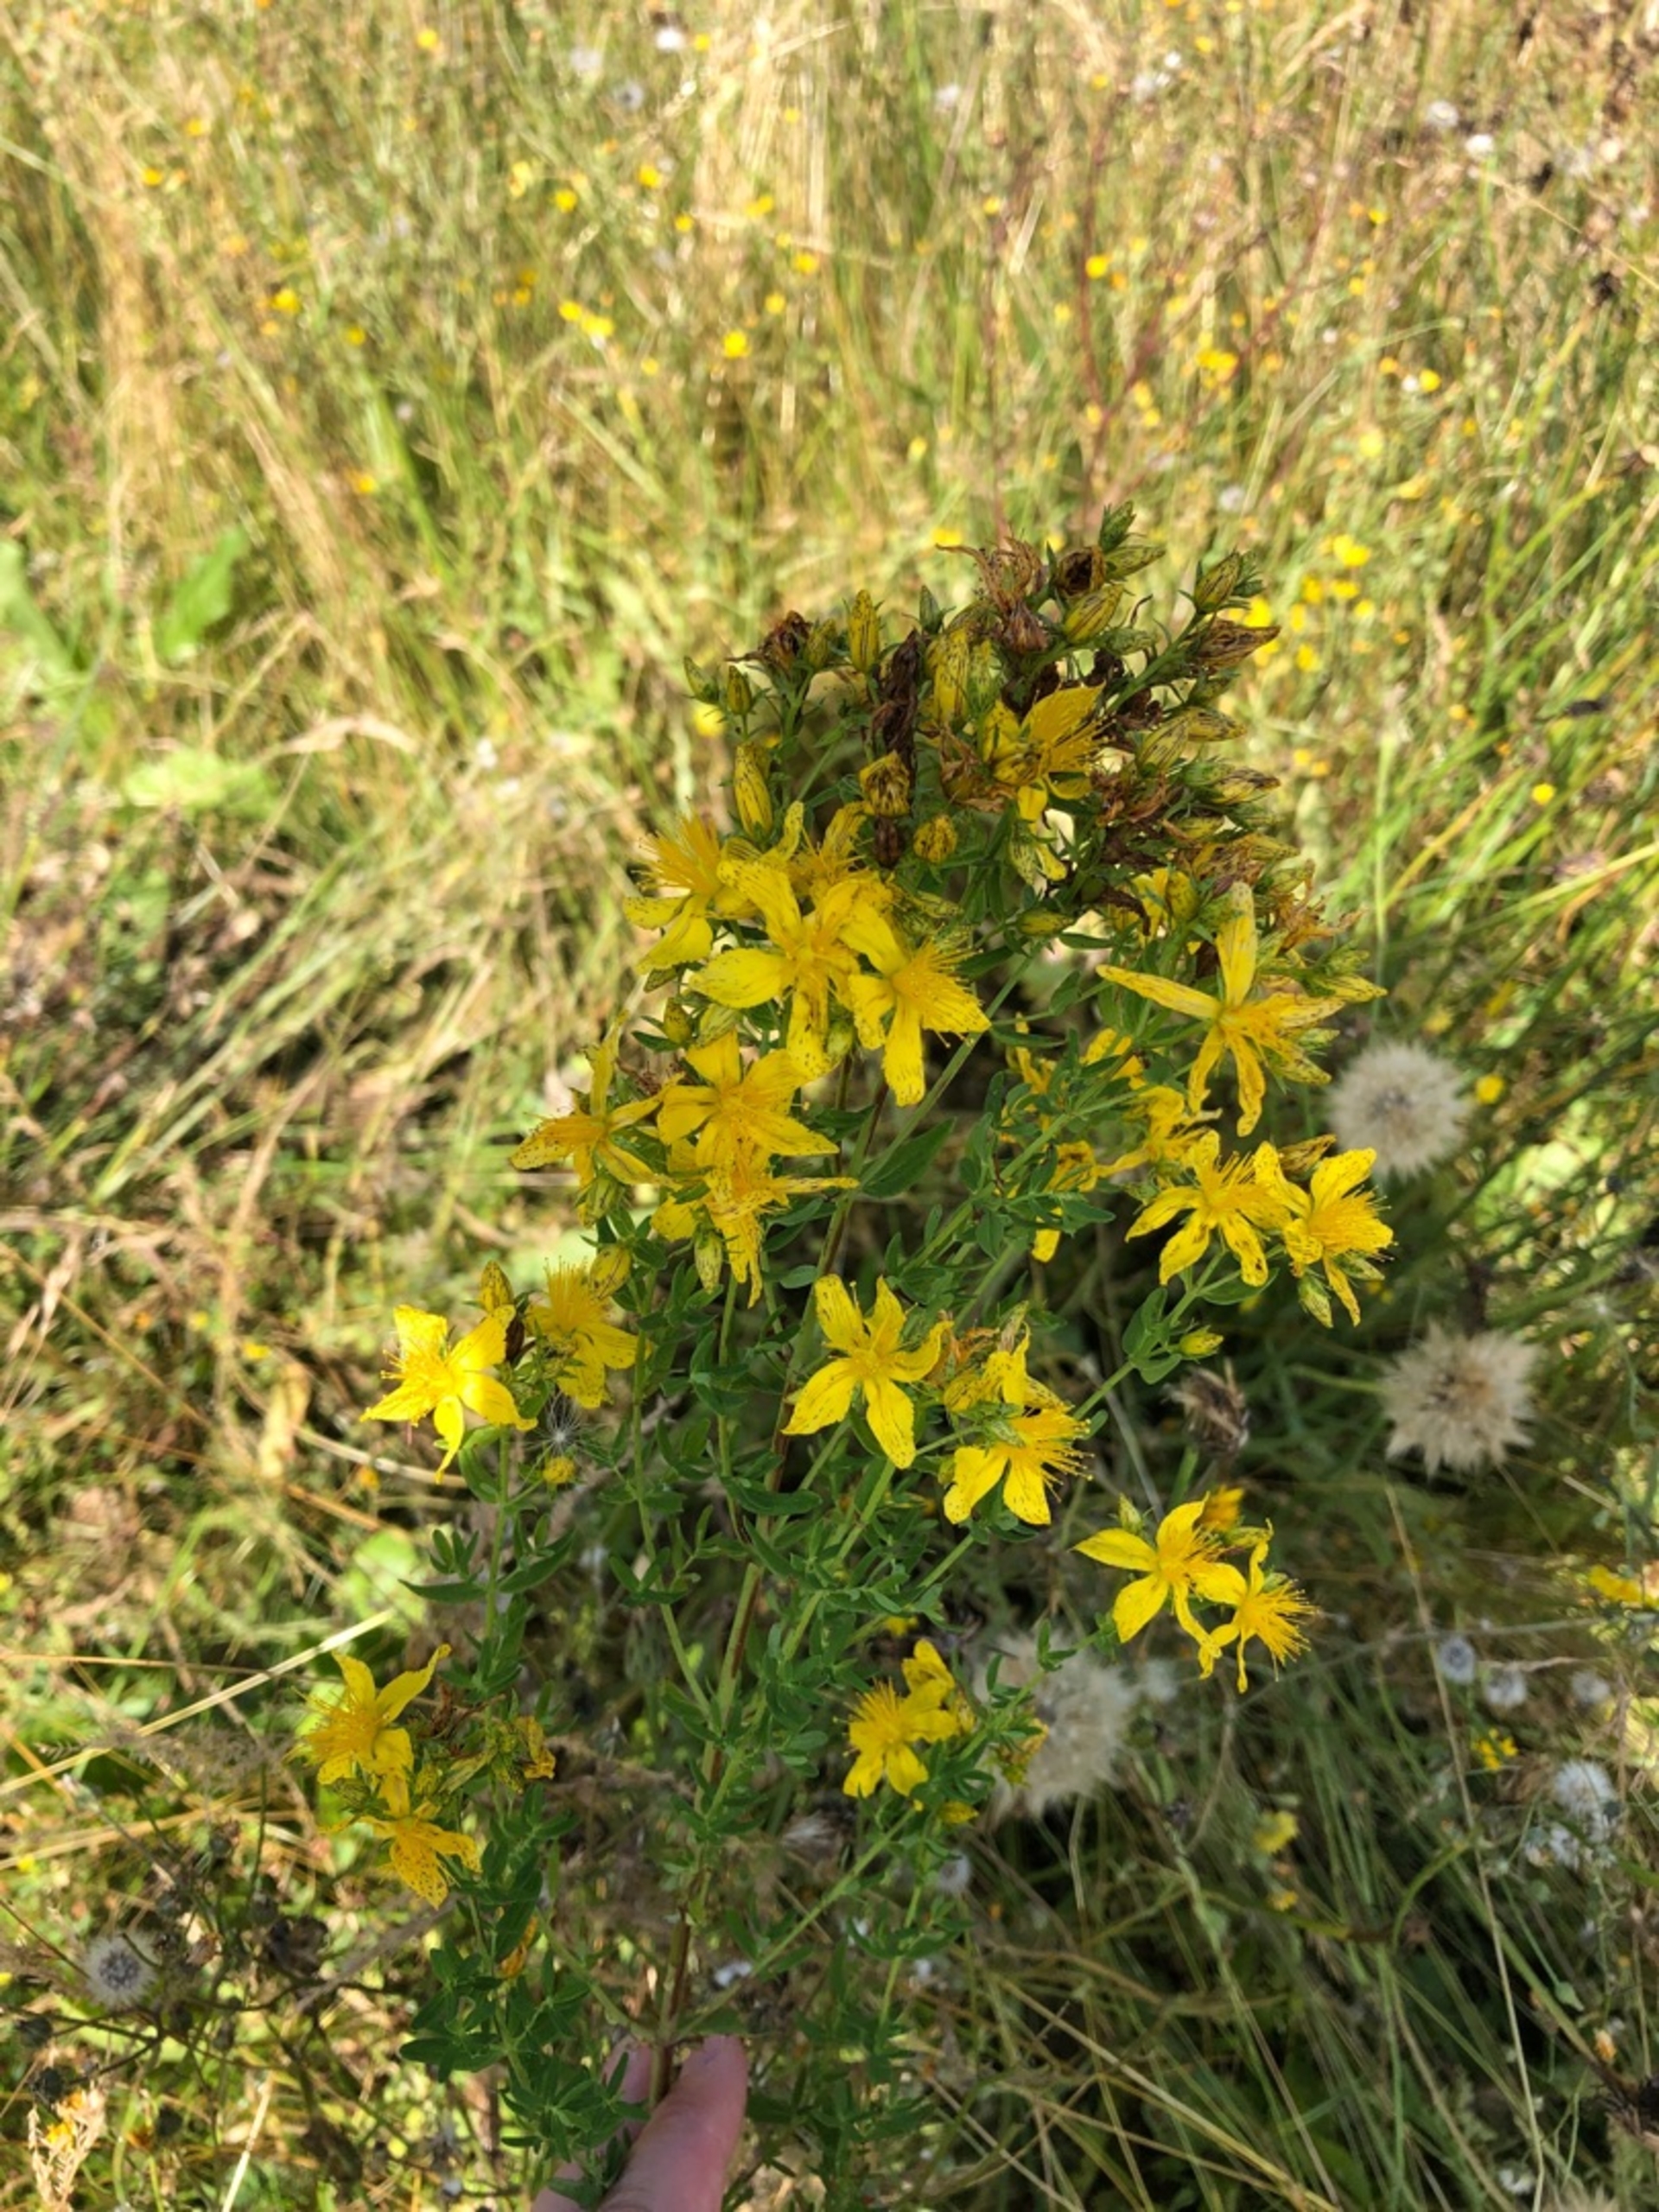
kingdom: Plantae
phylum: Tracheophyta
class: Magnoliopsida
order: Malpighiales
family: Hypericaceae
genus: Hypericum
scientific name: Hypericum perforatum
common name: Prikbladet perikon
